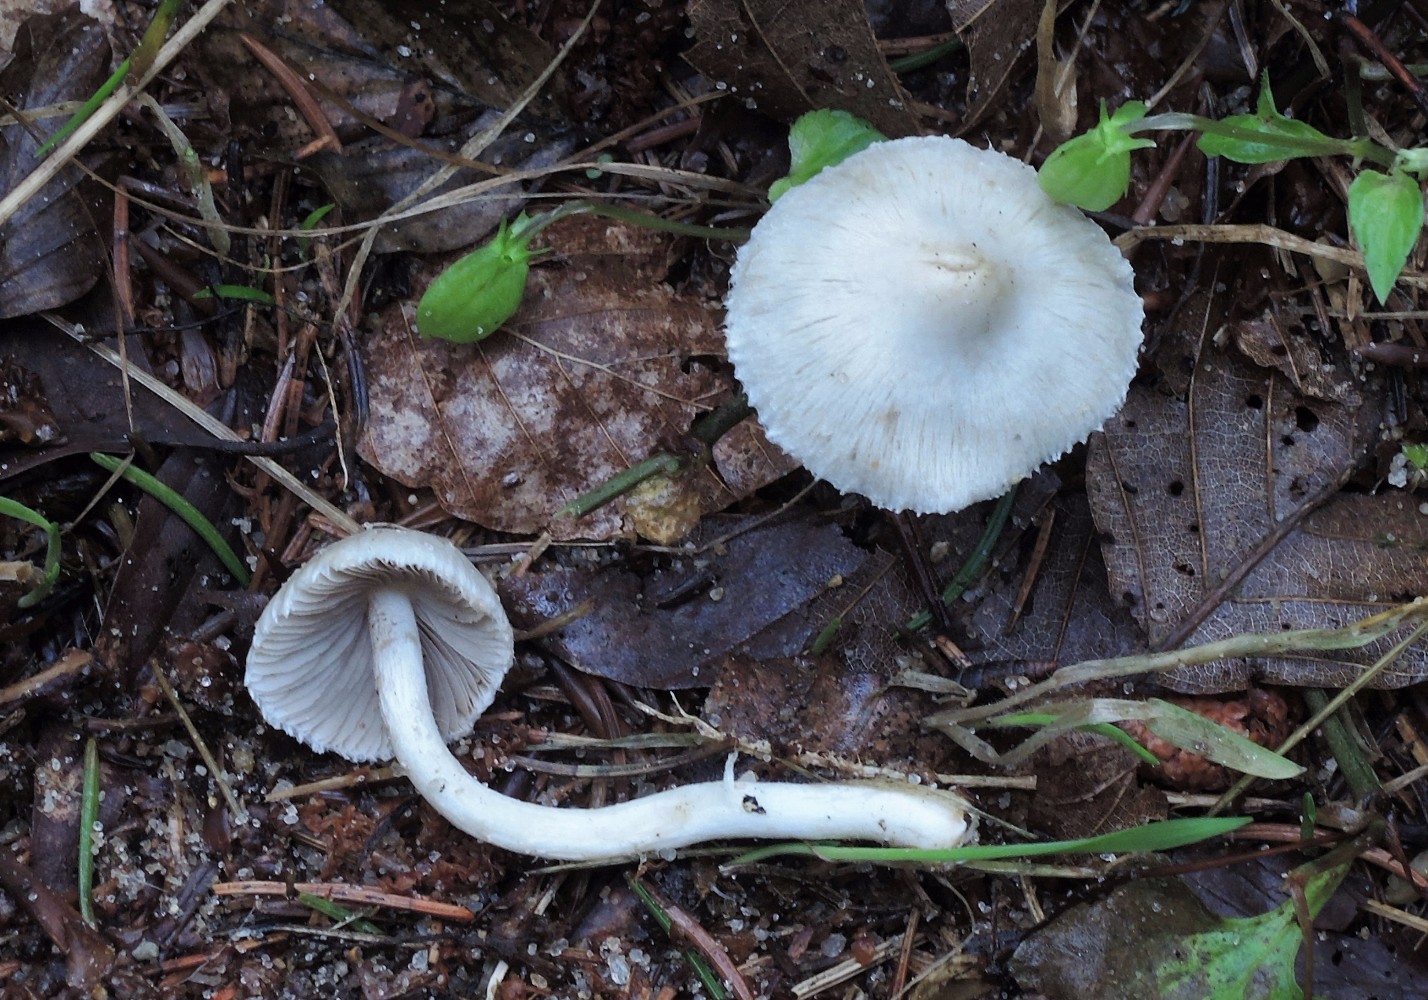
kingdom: Fungi
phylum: Basidiomycota
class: Agaricomycetes
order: Agaricales
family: Inocybaceae
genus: Inocybe
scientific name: Inocybe
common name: almindelig trævlhat
